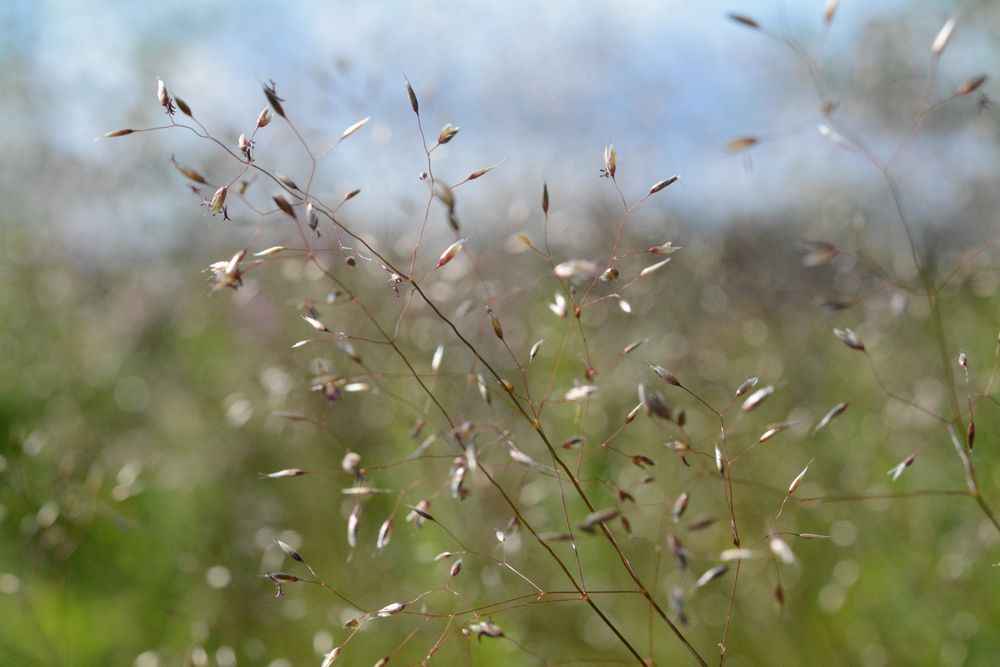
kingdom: Plantae
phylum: Tracheophyta
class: Liliopsida
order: Poales
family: Poaceae
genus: Avenella
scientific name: Avenella flexuosa
